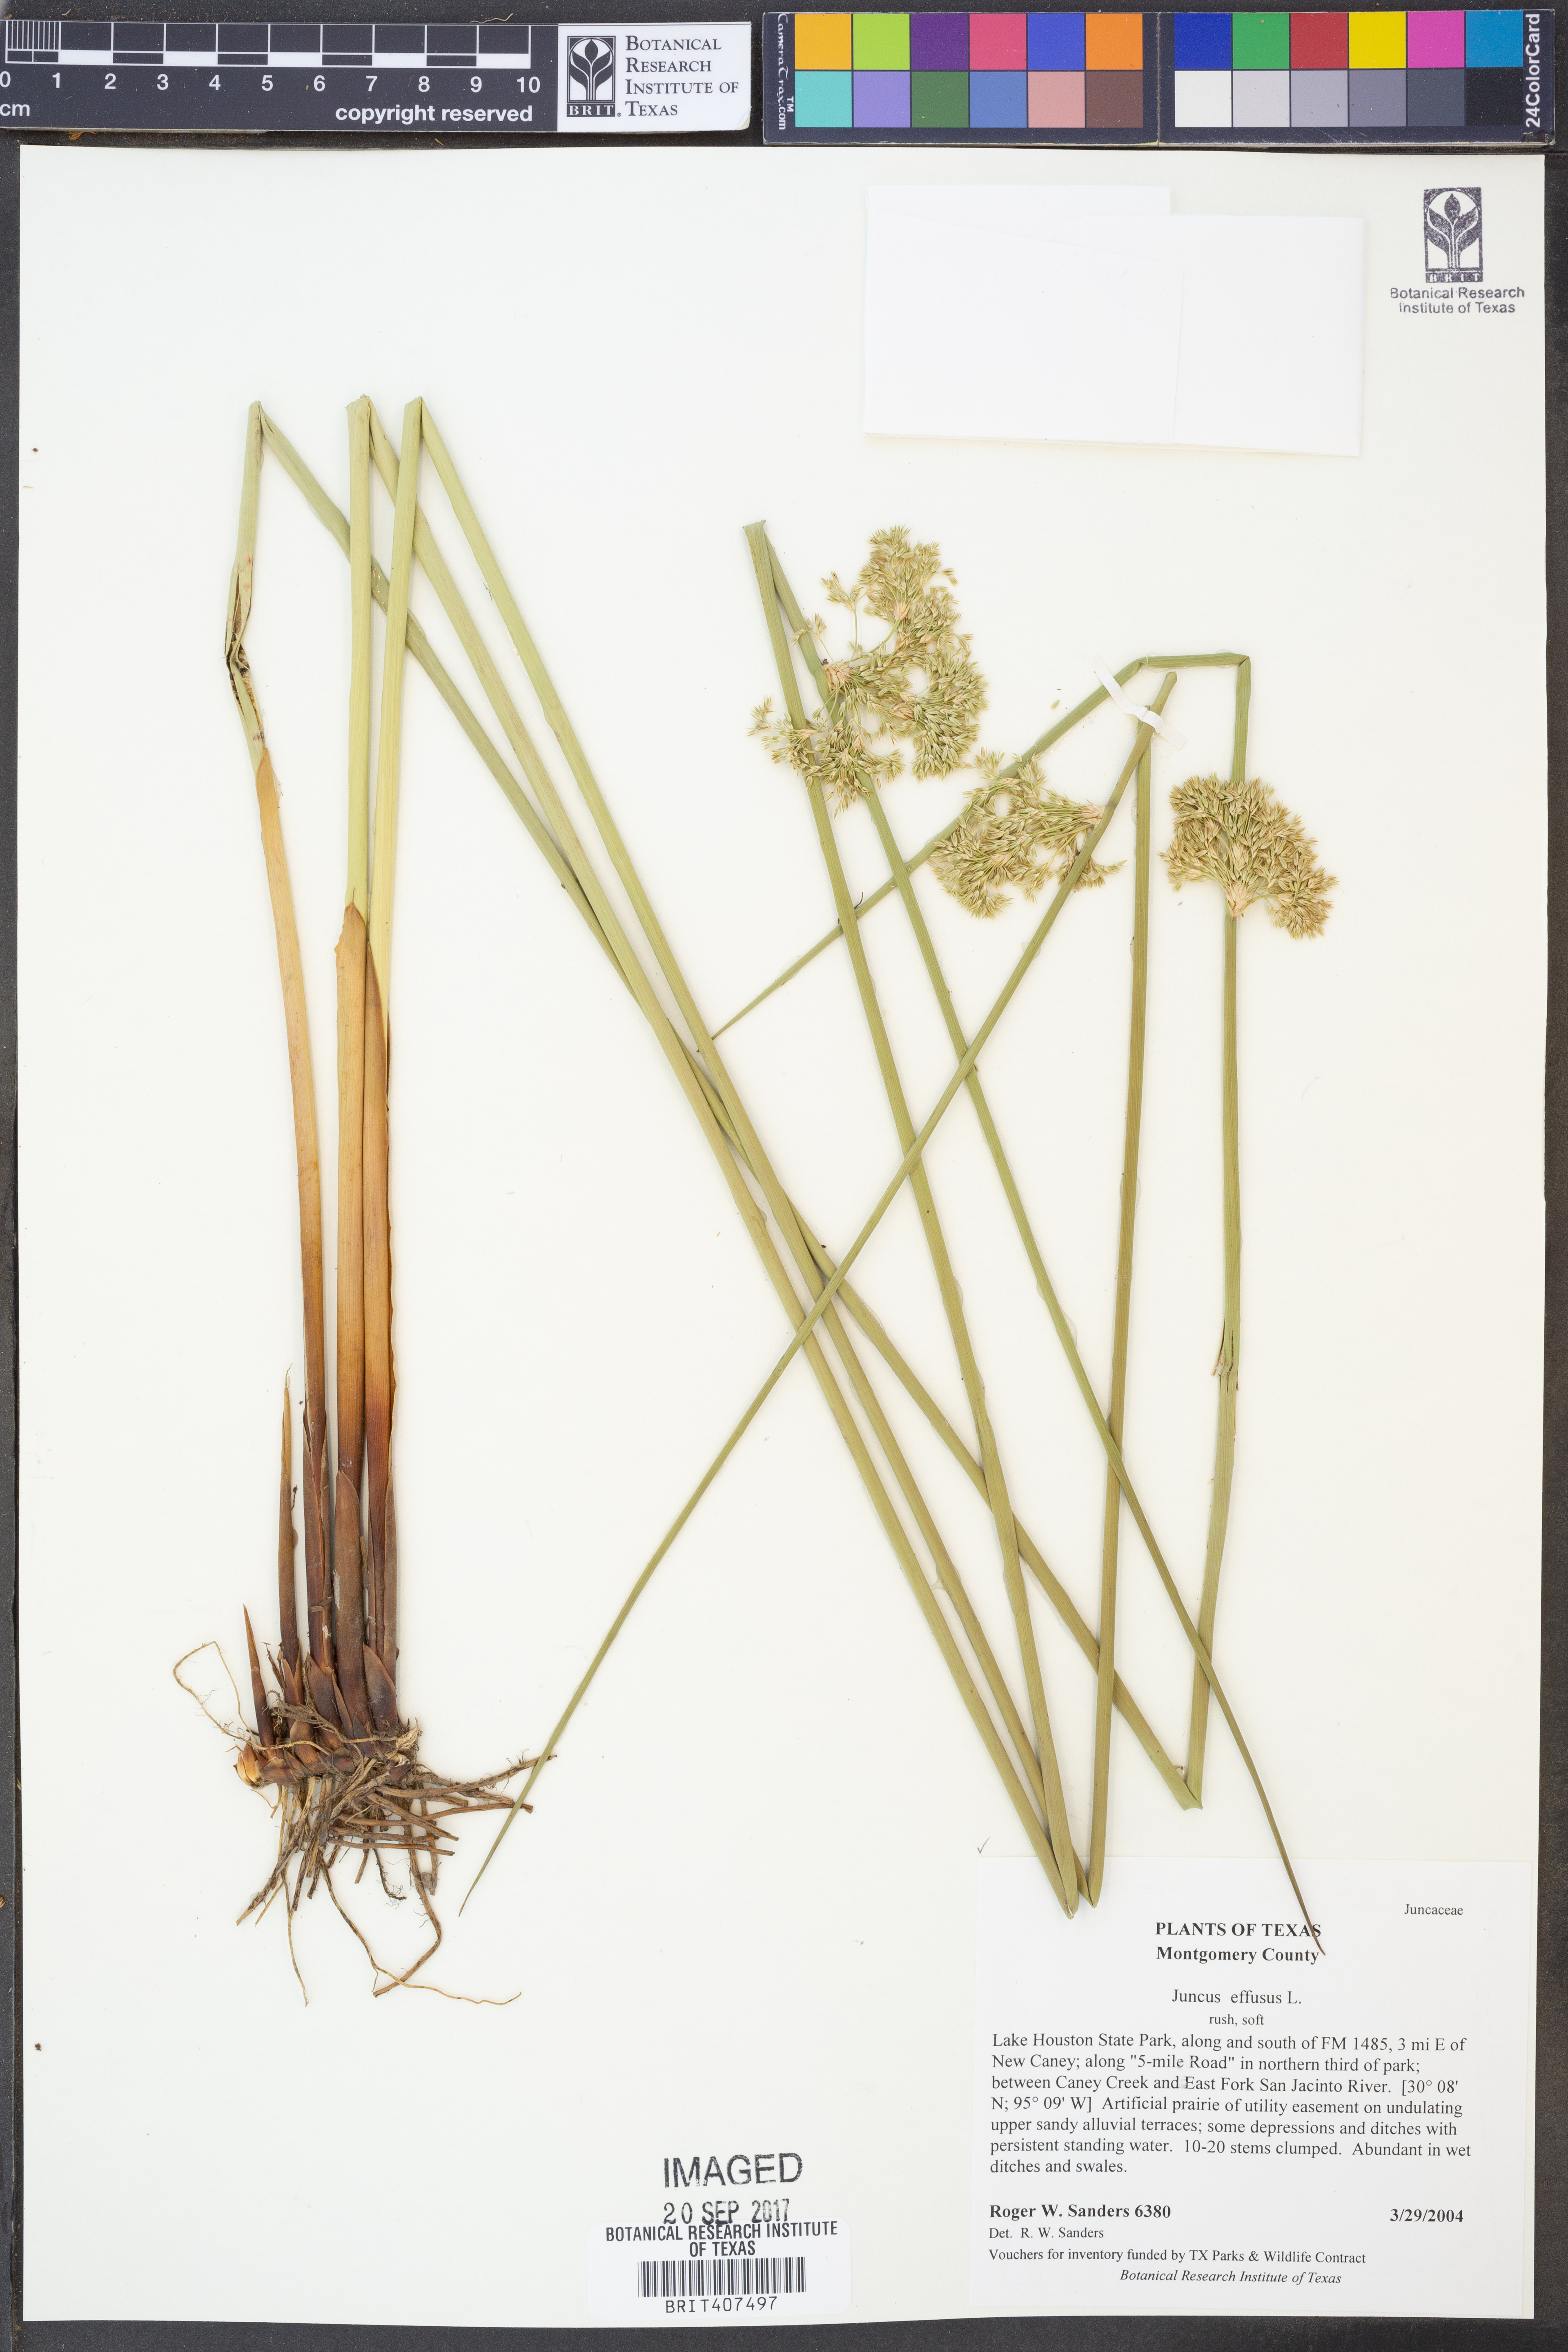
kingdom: Plantae
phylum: Tracheophyta
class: Liliopsida
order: Poales
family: Juncaceae
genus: Juncus
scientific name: Juncus effusus
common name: Soft rush
